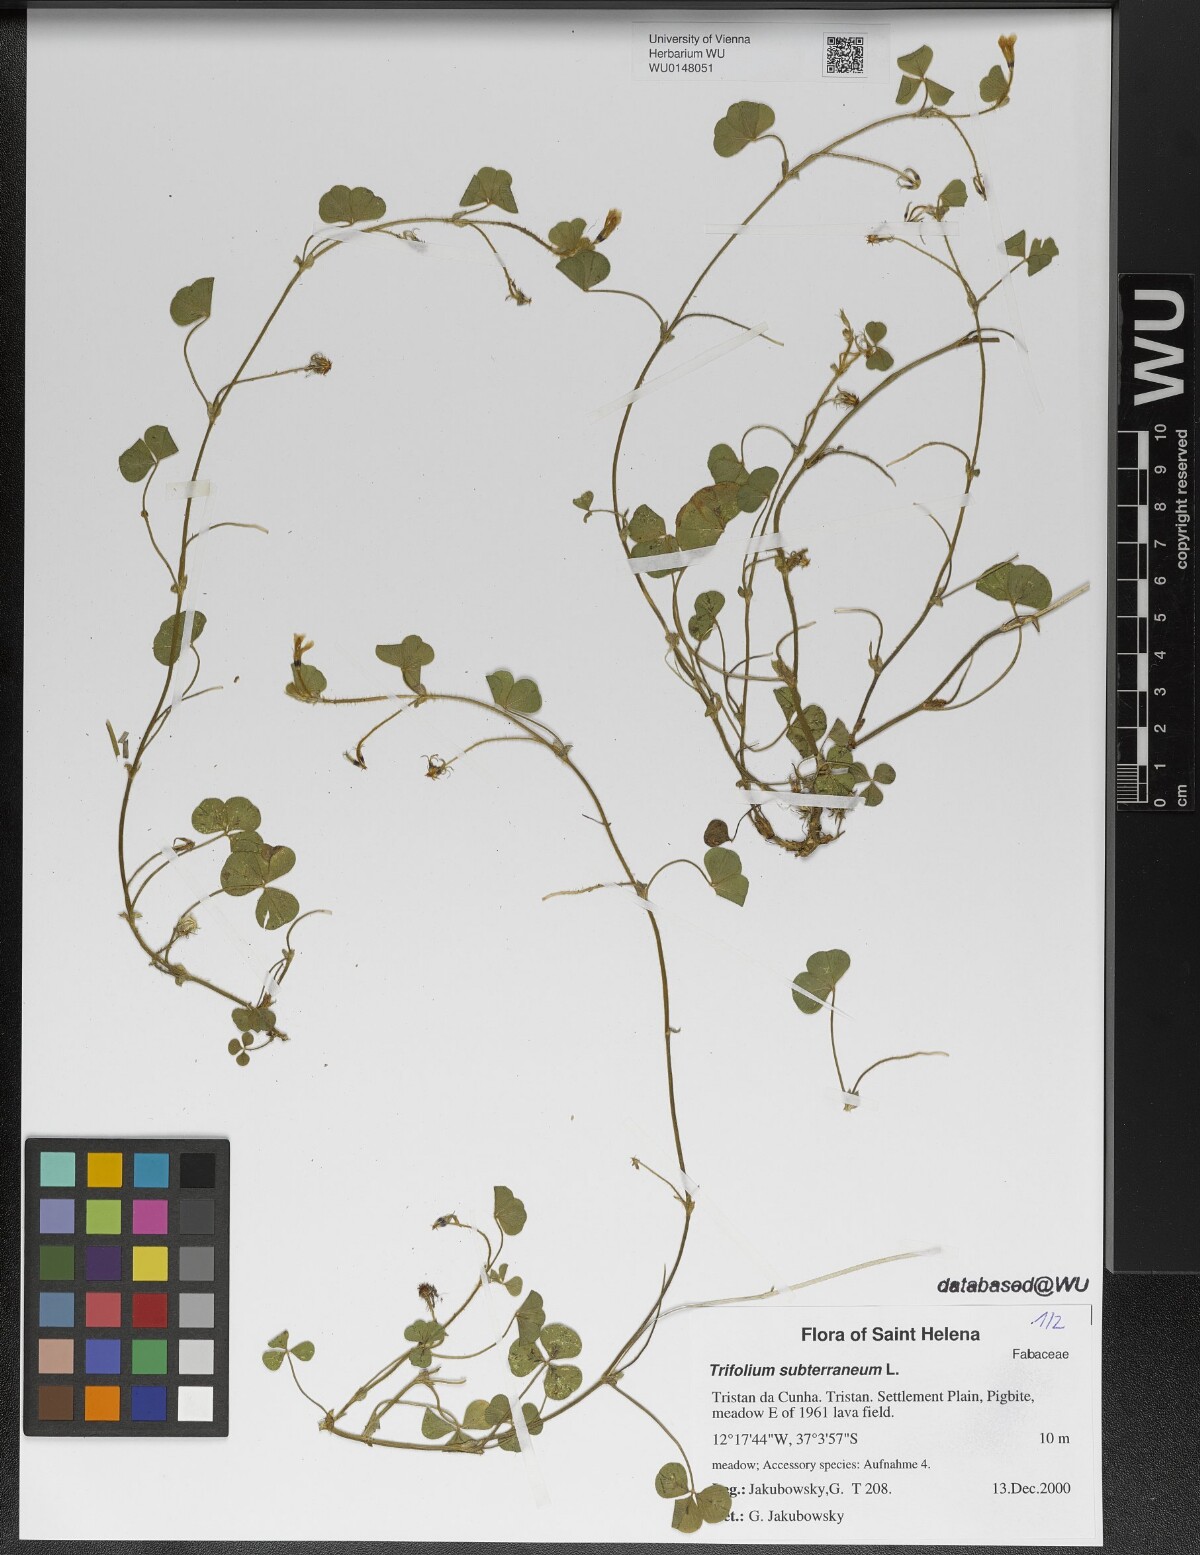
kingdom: Plantae
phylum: Tracheophyta
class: Magnoliopsida
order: Fabales
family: Fabaceae
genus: Trifolium
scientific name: Trifolium subterraneum
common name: Subterranean clover
